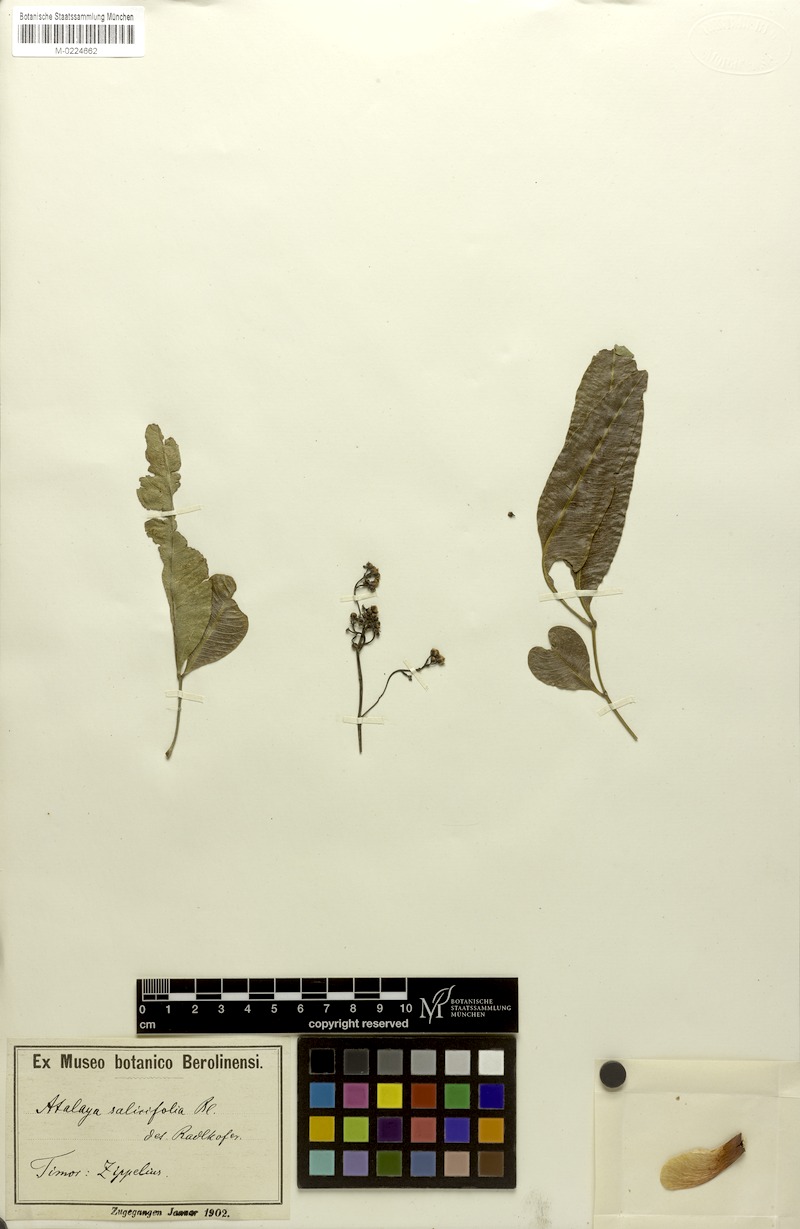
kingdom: Plantae
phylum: Tracheophyta
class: Magnoliopsida
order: Sapindales
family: Sapindaceae
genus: Atalaya
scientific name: Atalaya salicifolia
